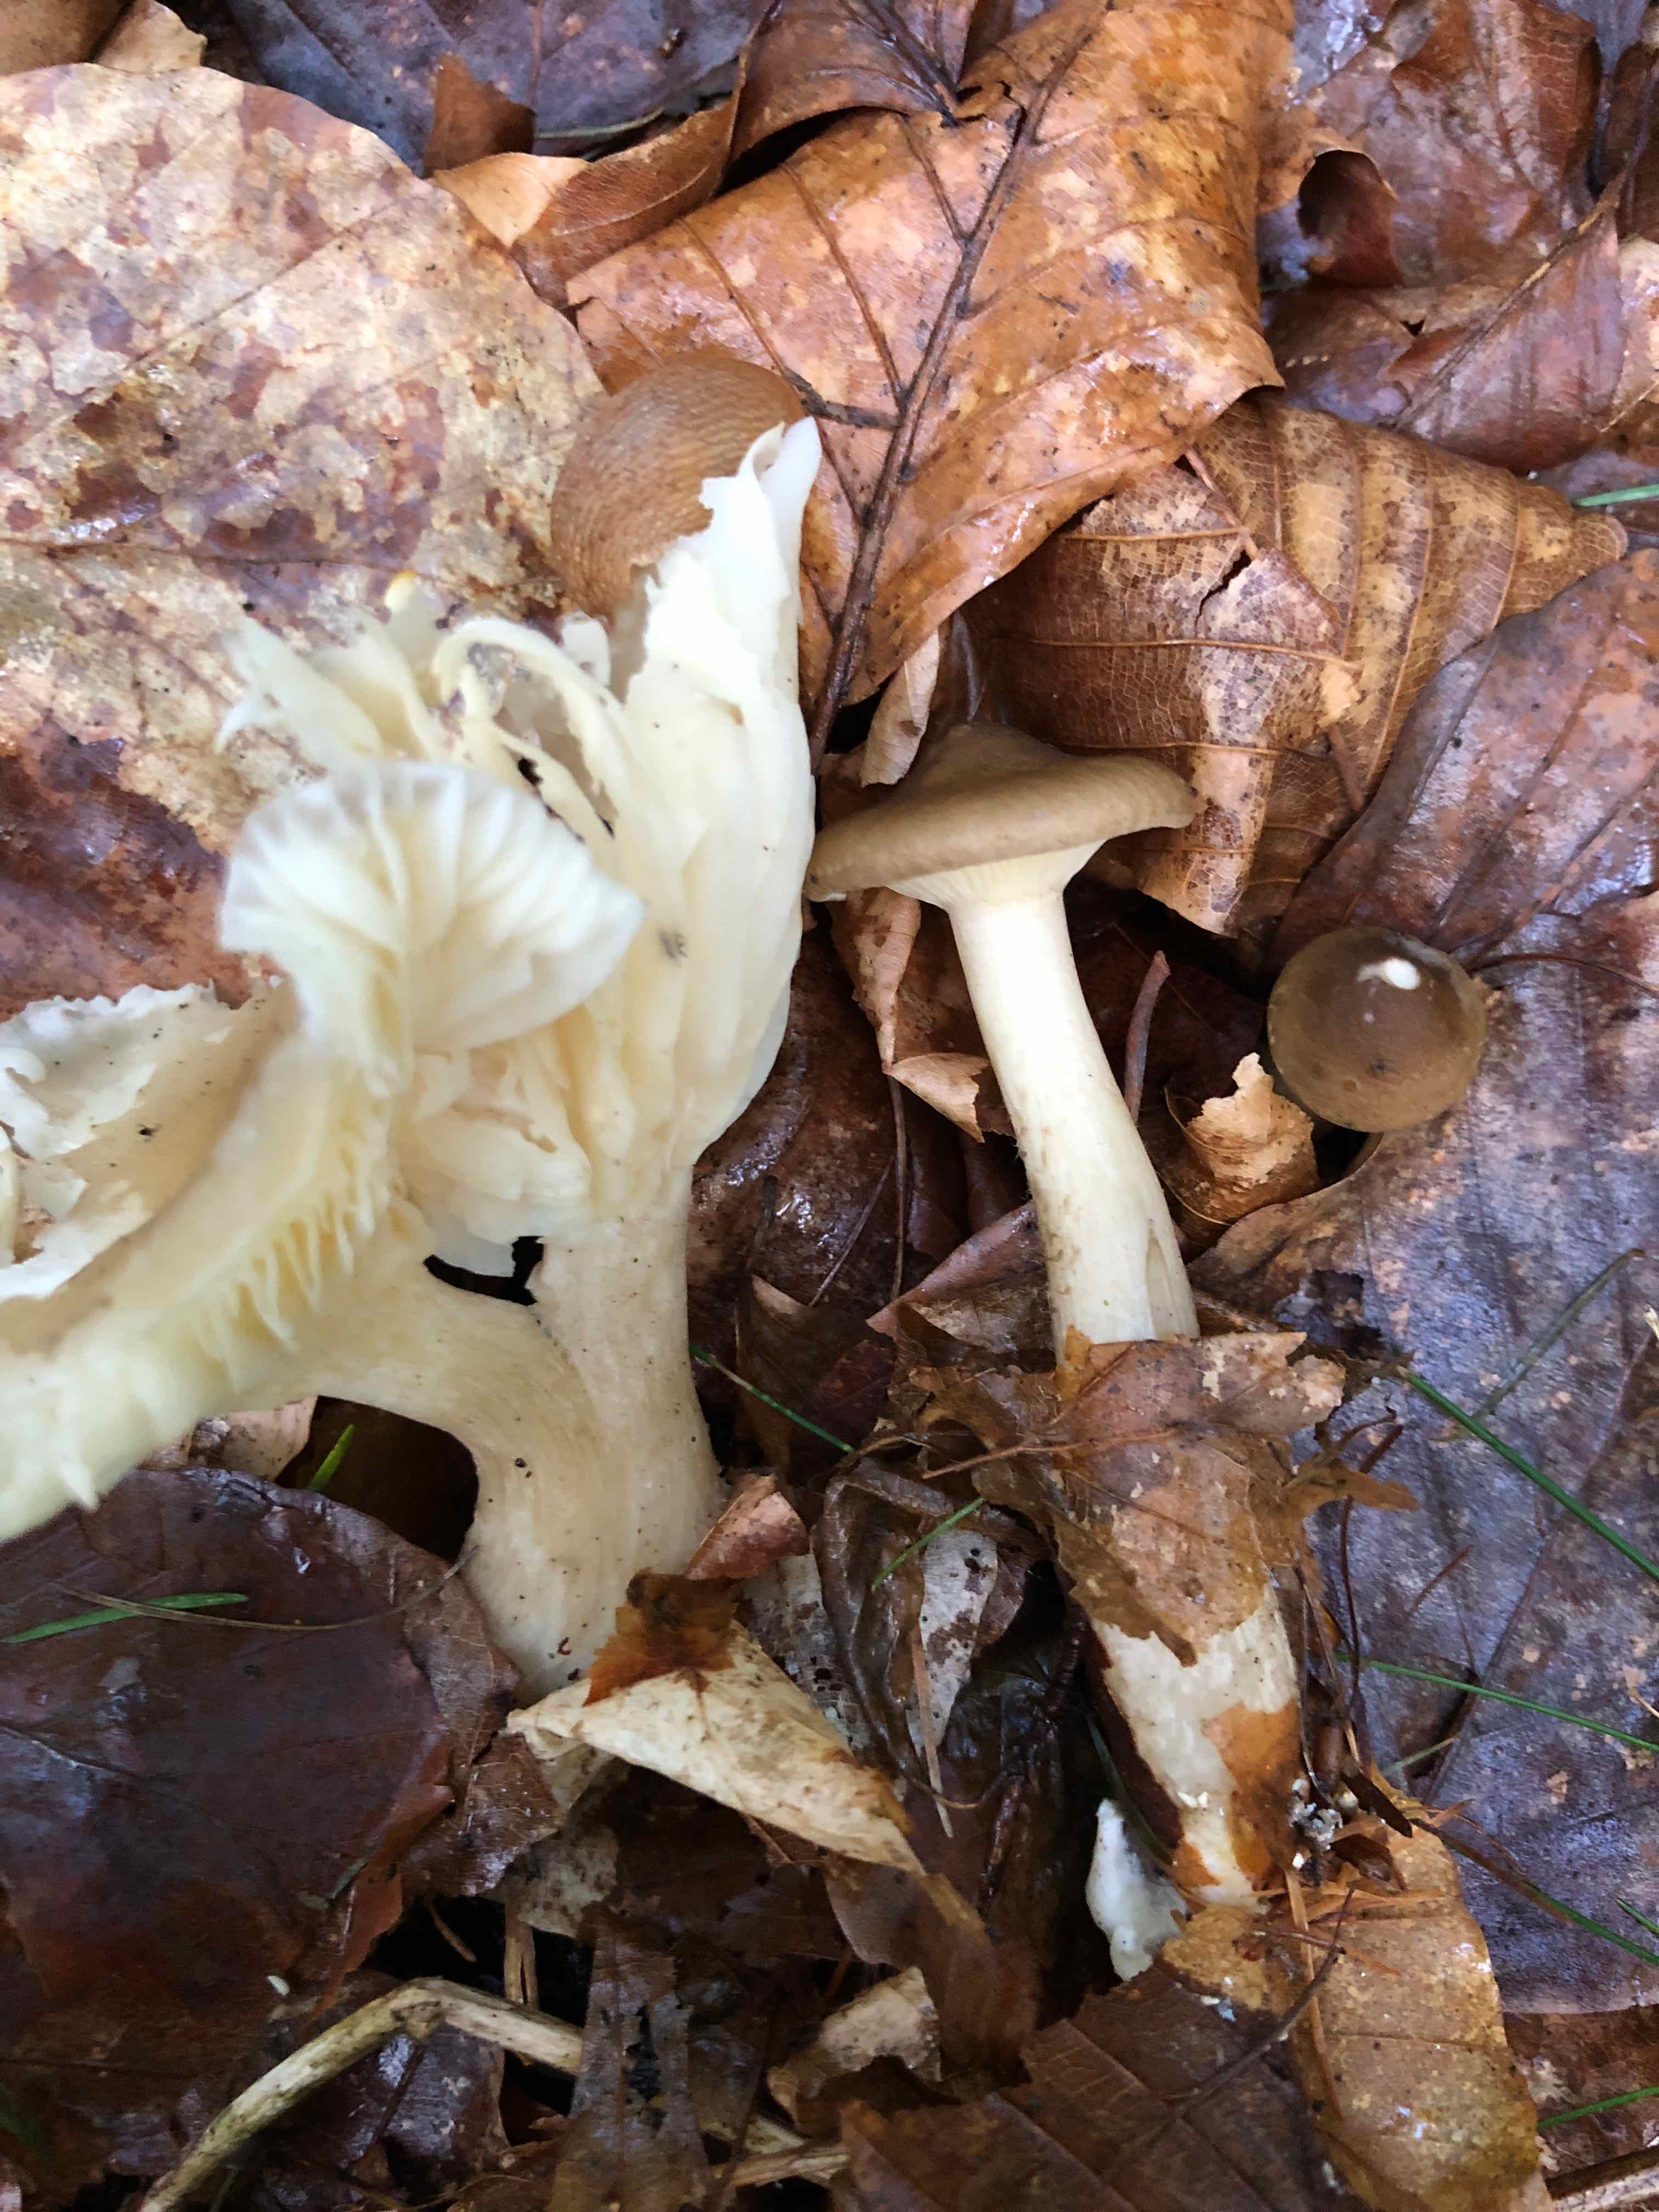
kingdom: Fungi
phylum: Basidiomycota
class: Agaricomycetes
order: Agaricales
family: Hygrophoraceae
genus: Ampulloclitocybe
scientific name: Ampulloclitocybe clavipes
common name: køllefod
